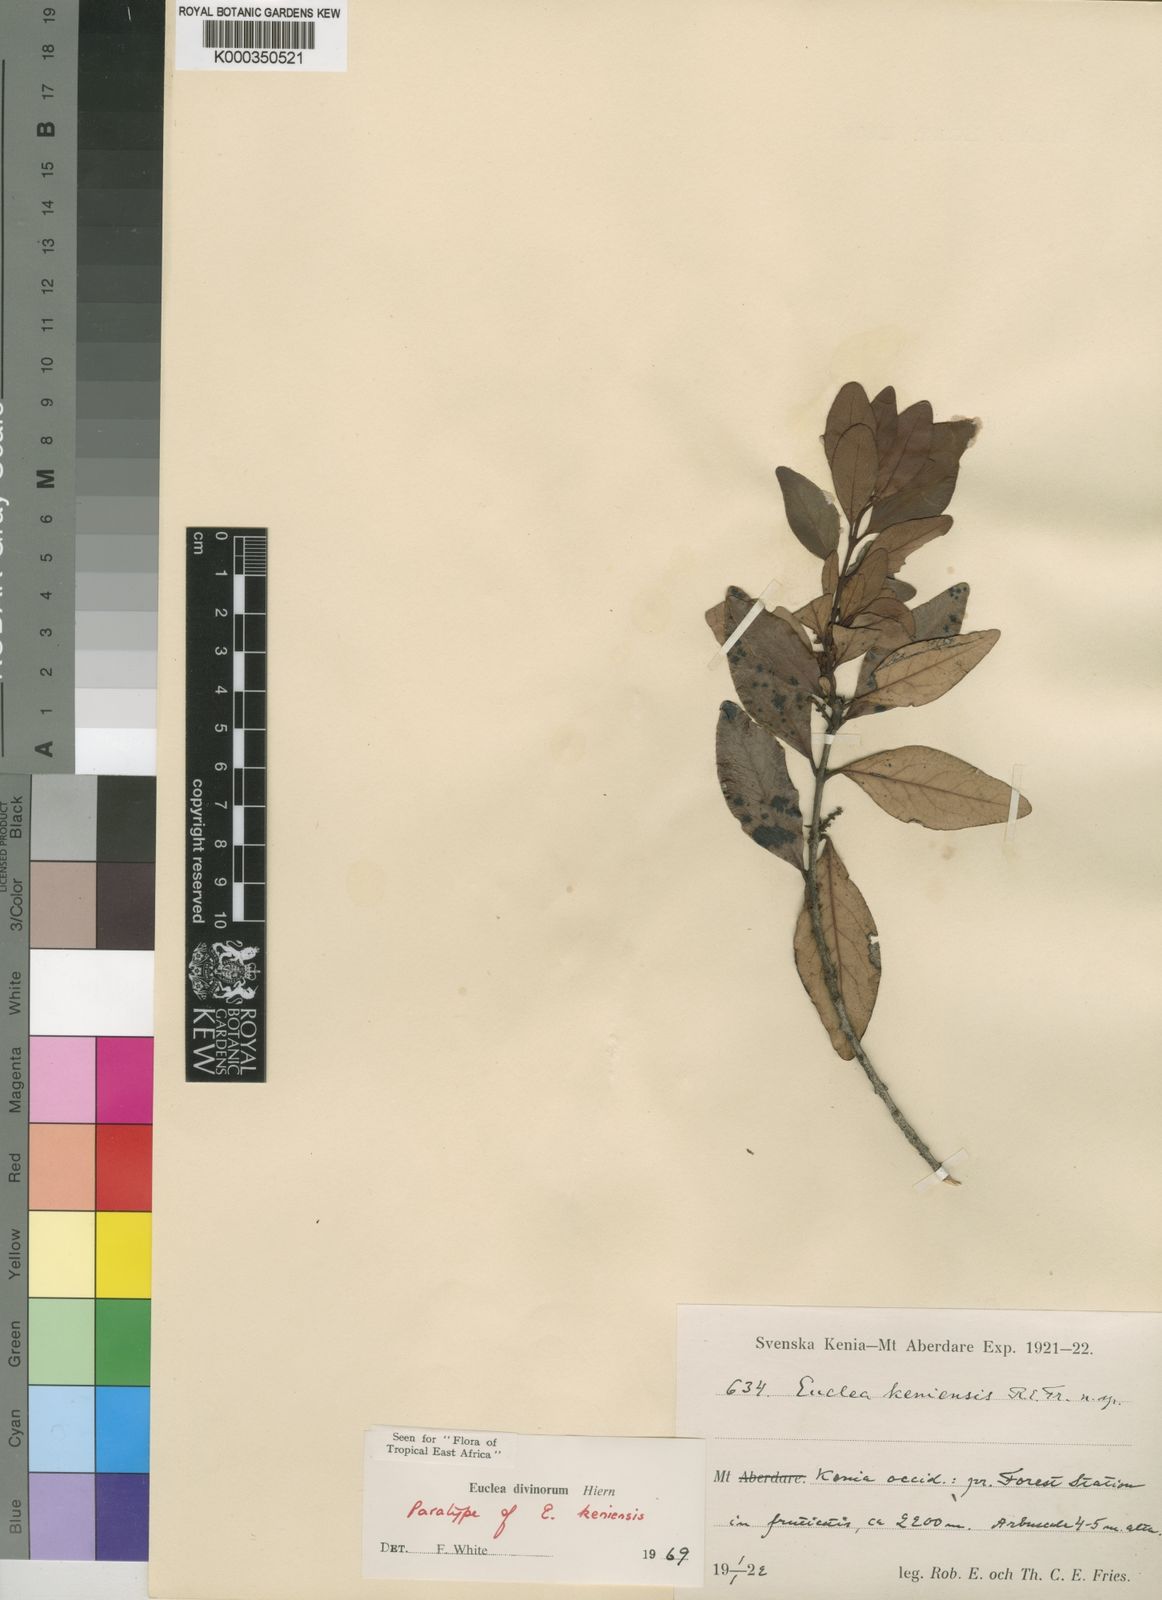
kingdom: Plantae
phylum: Tracheophyta
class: Magnoliopsida
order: Ericales
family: Ebenaceae
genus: Euclea
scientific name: Euclea divinorum
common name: Diamond-leaved euclea
